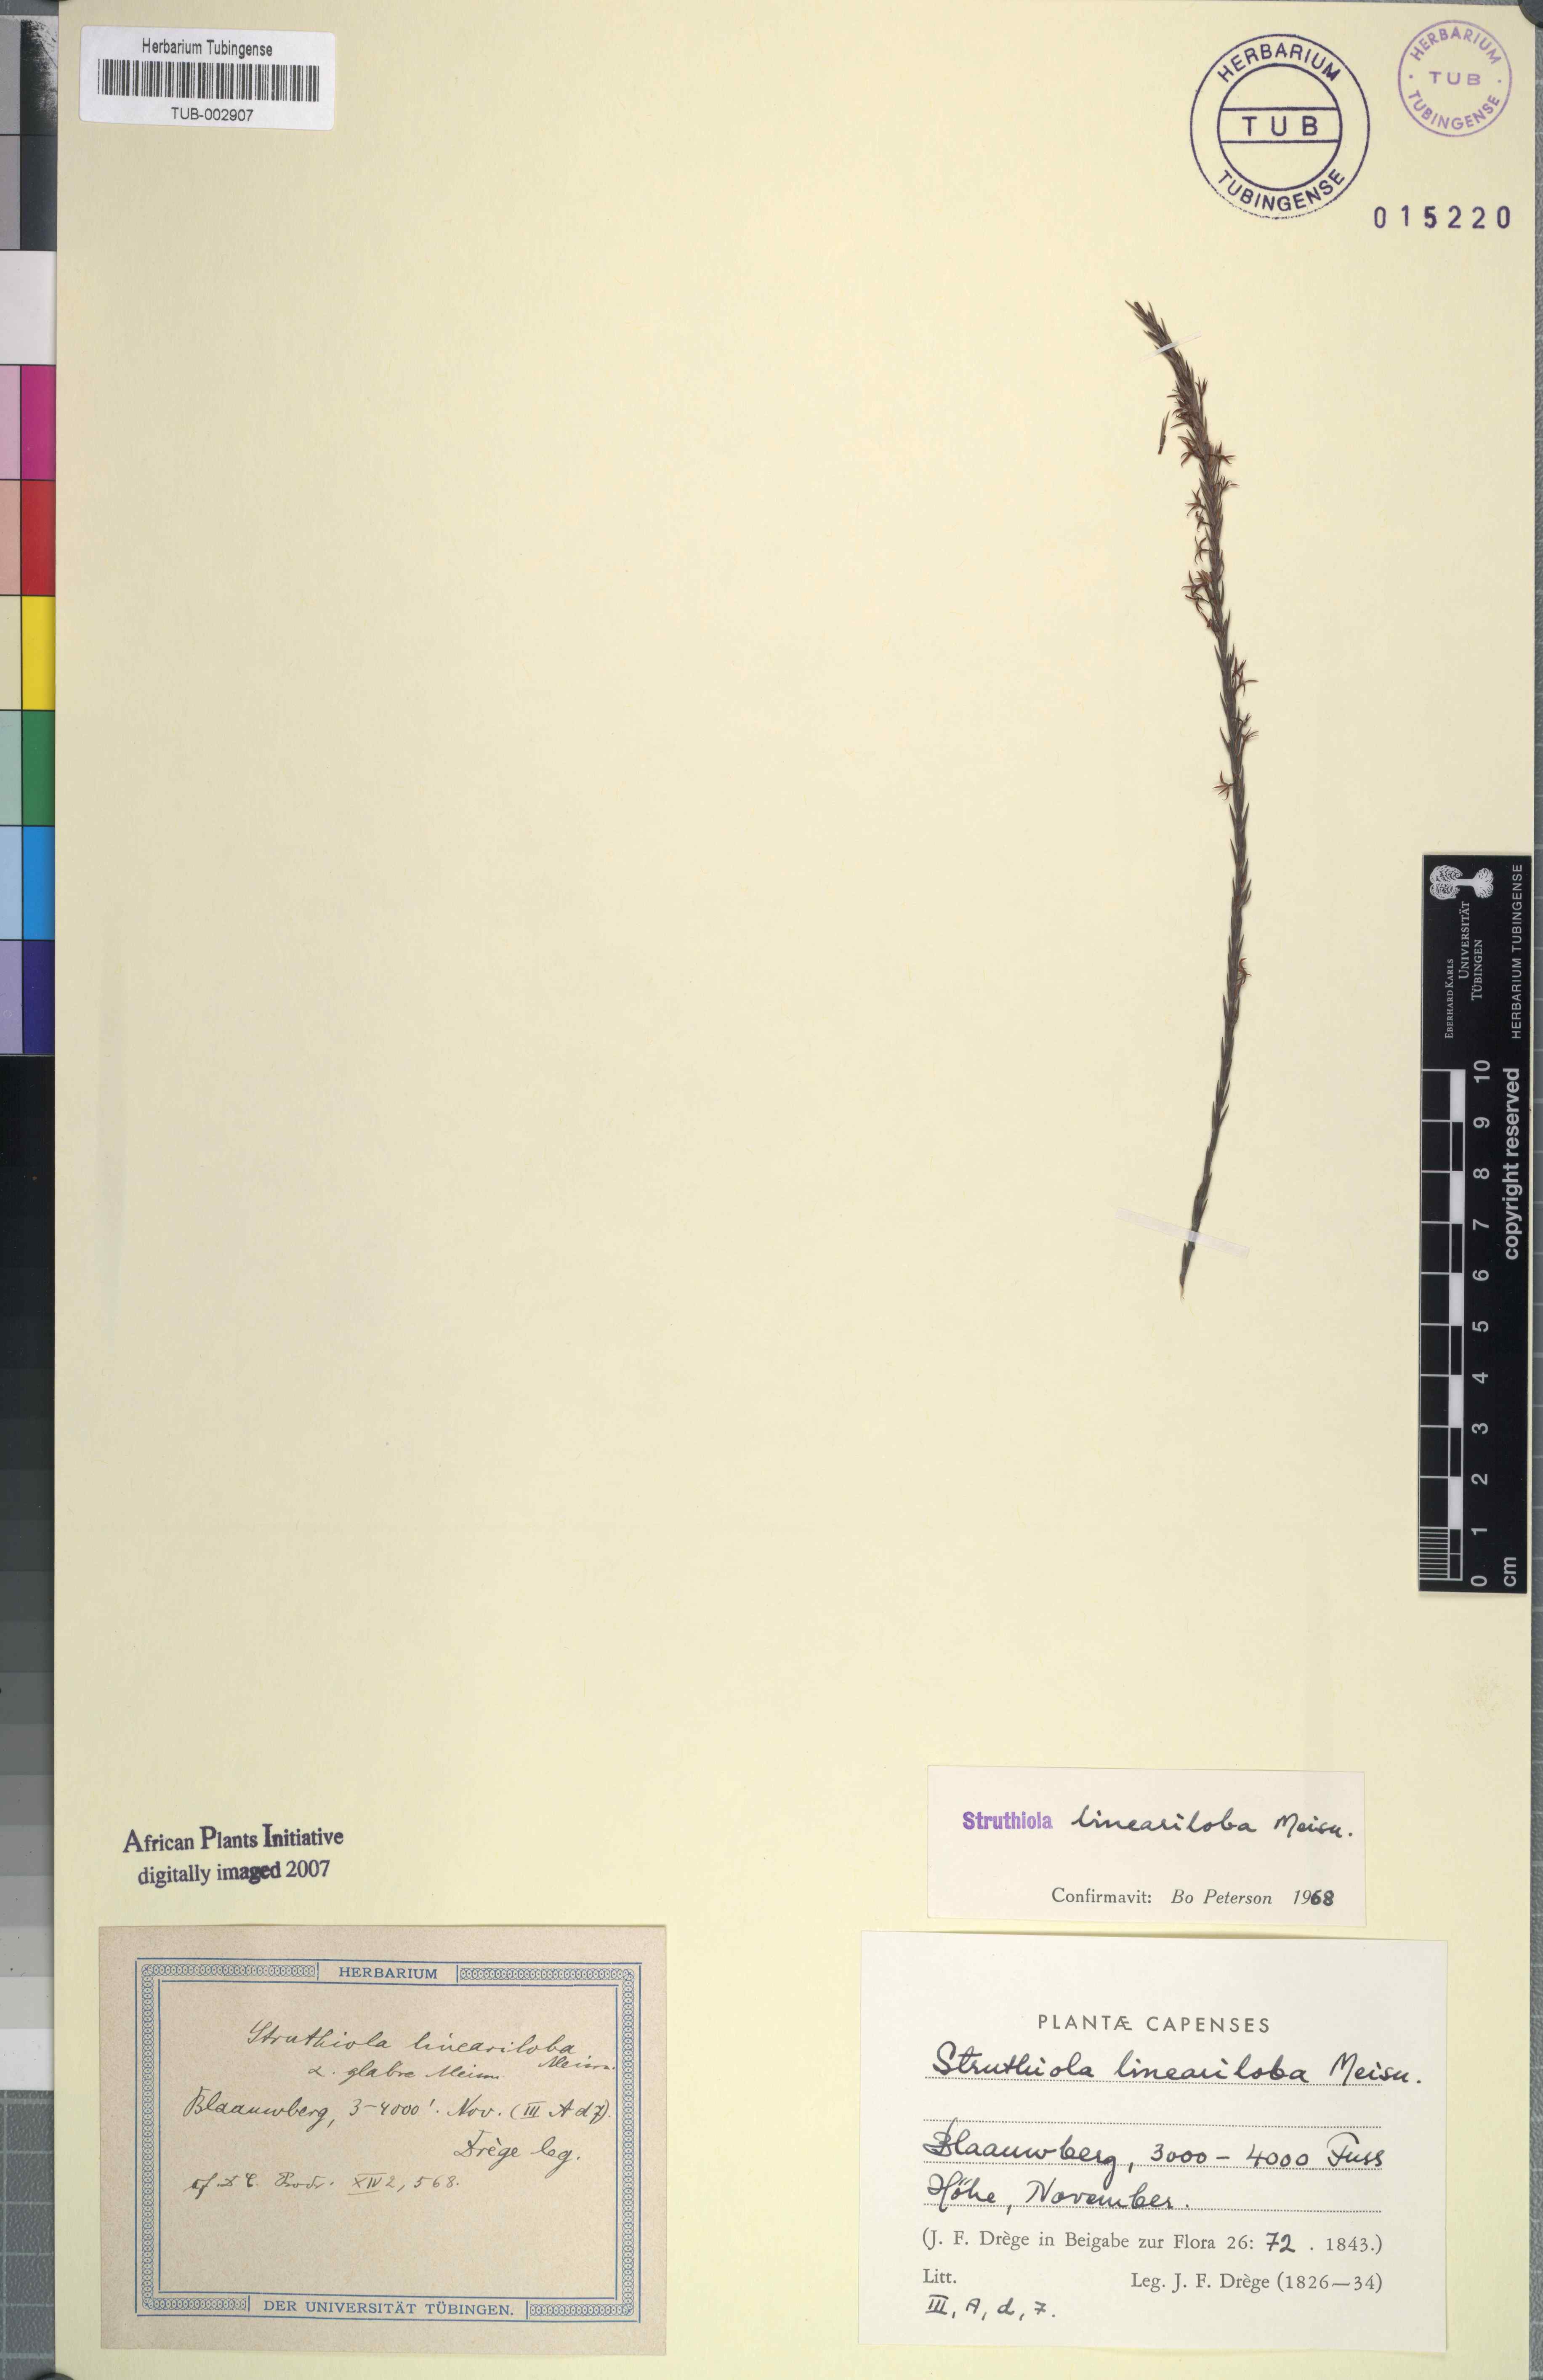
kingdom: Plantae
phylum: Tracheophyta
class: Magnoliopsida
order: Malvales
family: Thymelaeaceae
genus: Struthiola
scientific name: Struthiola lineariloba
